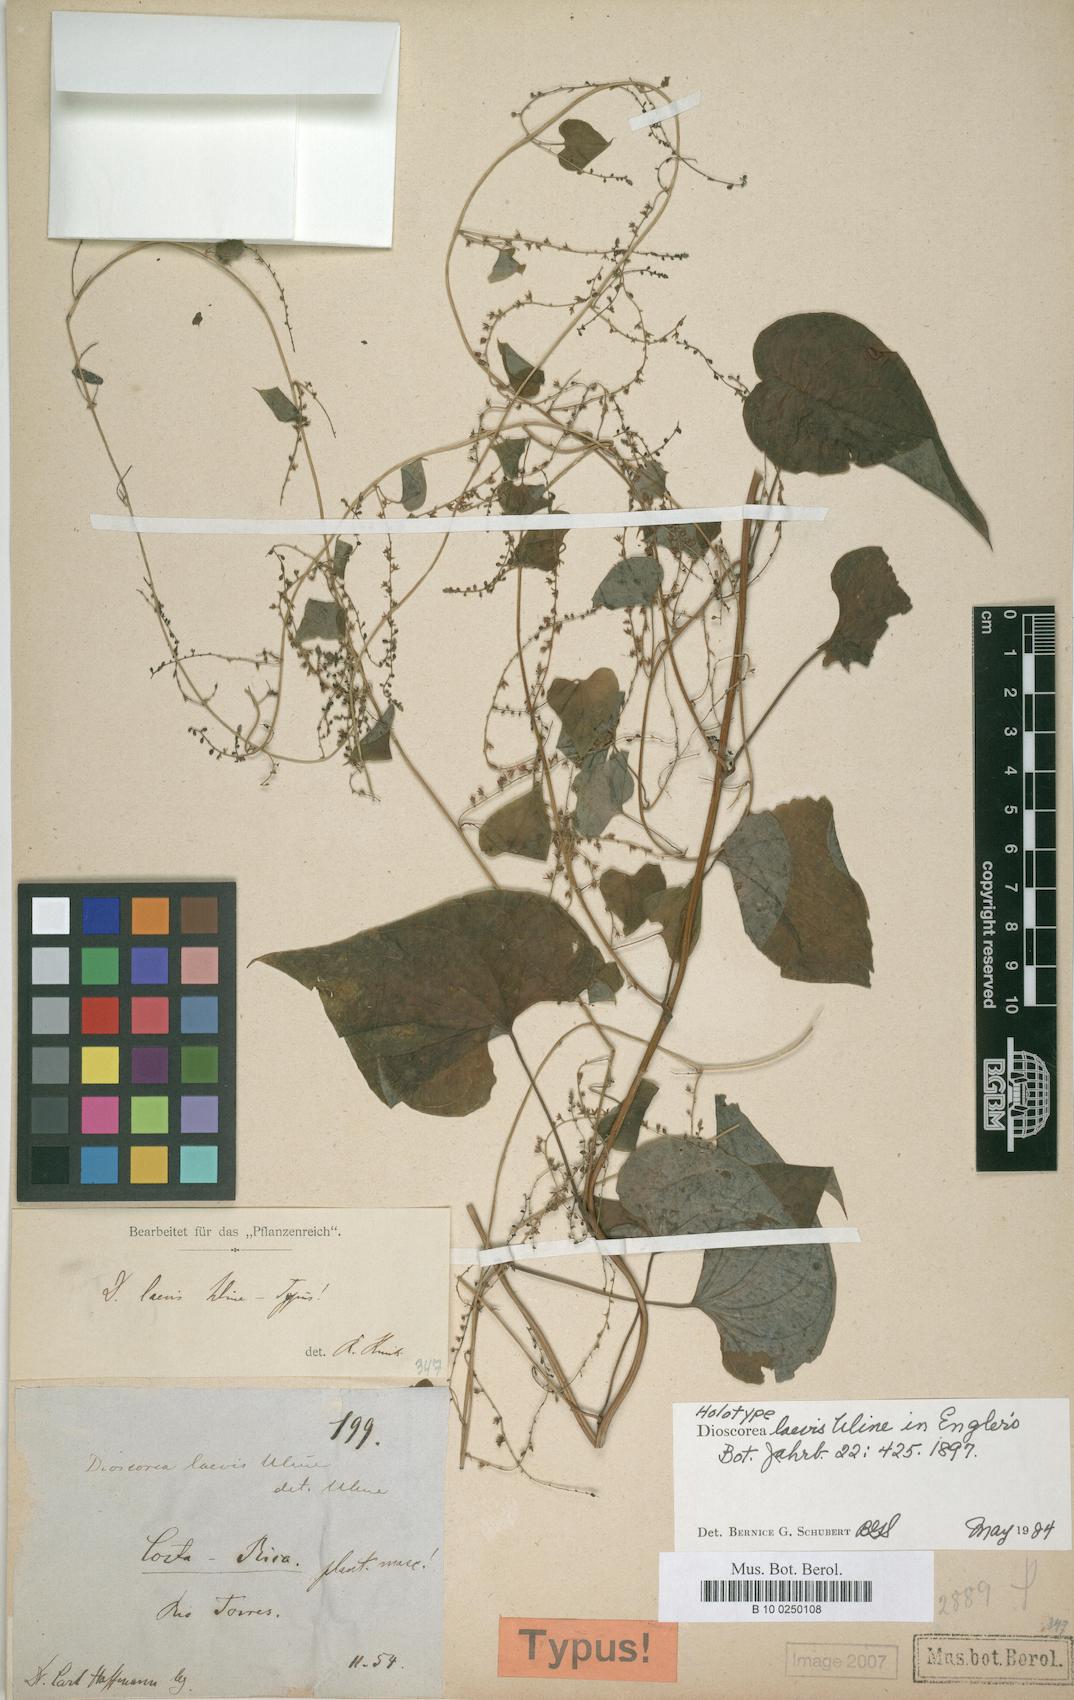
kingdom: Plantae
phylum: Tracheophyta
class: Liliopsida
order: Dioscoreales
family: Dioscoreaceae
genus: Dioscorea
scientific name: Dioscorea laevis
